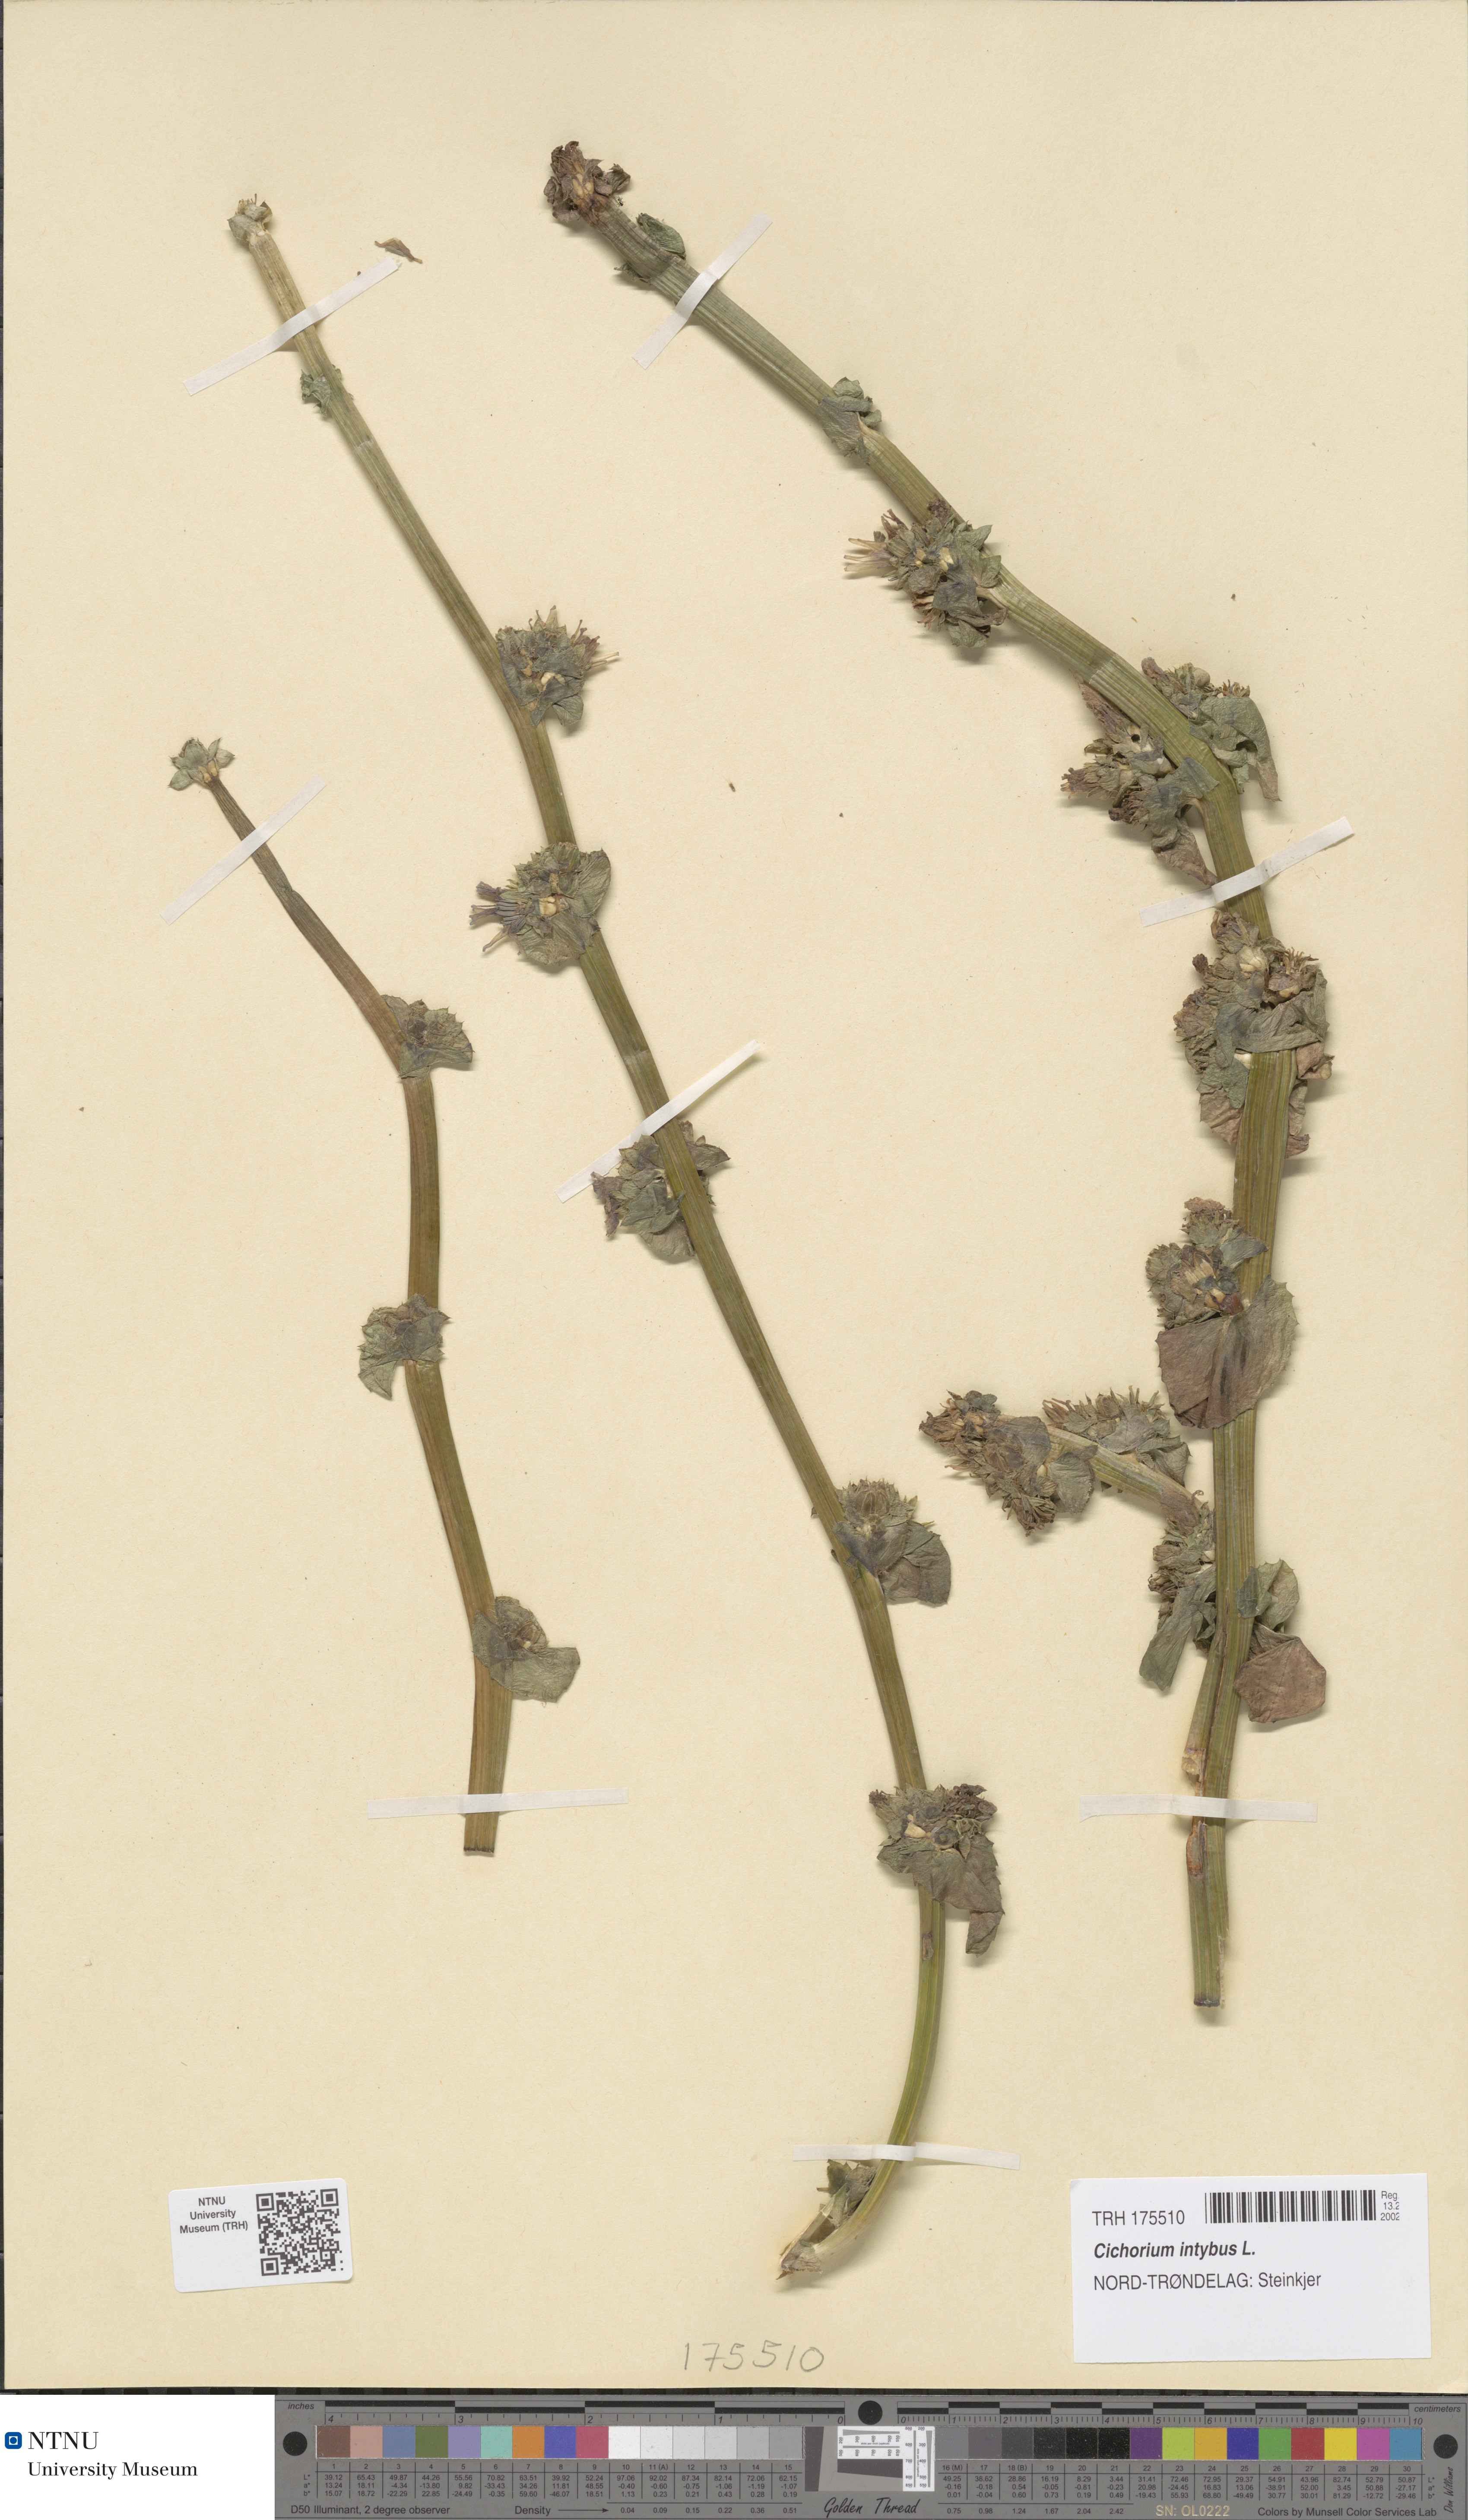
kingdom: Plantae
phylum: Tracheophyta
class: Magnoliopsida
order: Asterales
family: Asteraceae
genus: Cichorium
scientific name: Cichorium intybus
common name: Chicory
